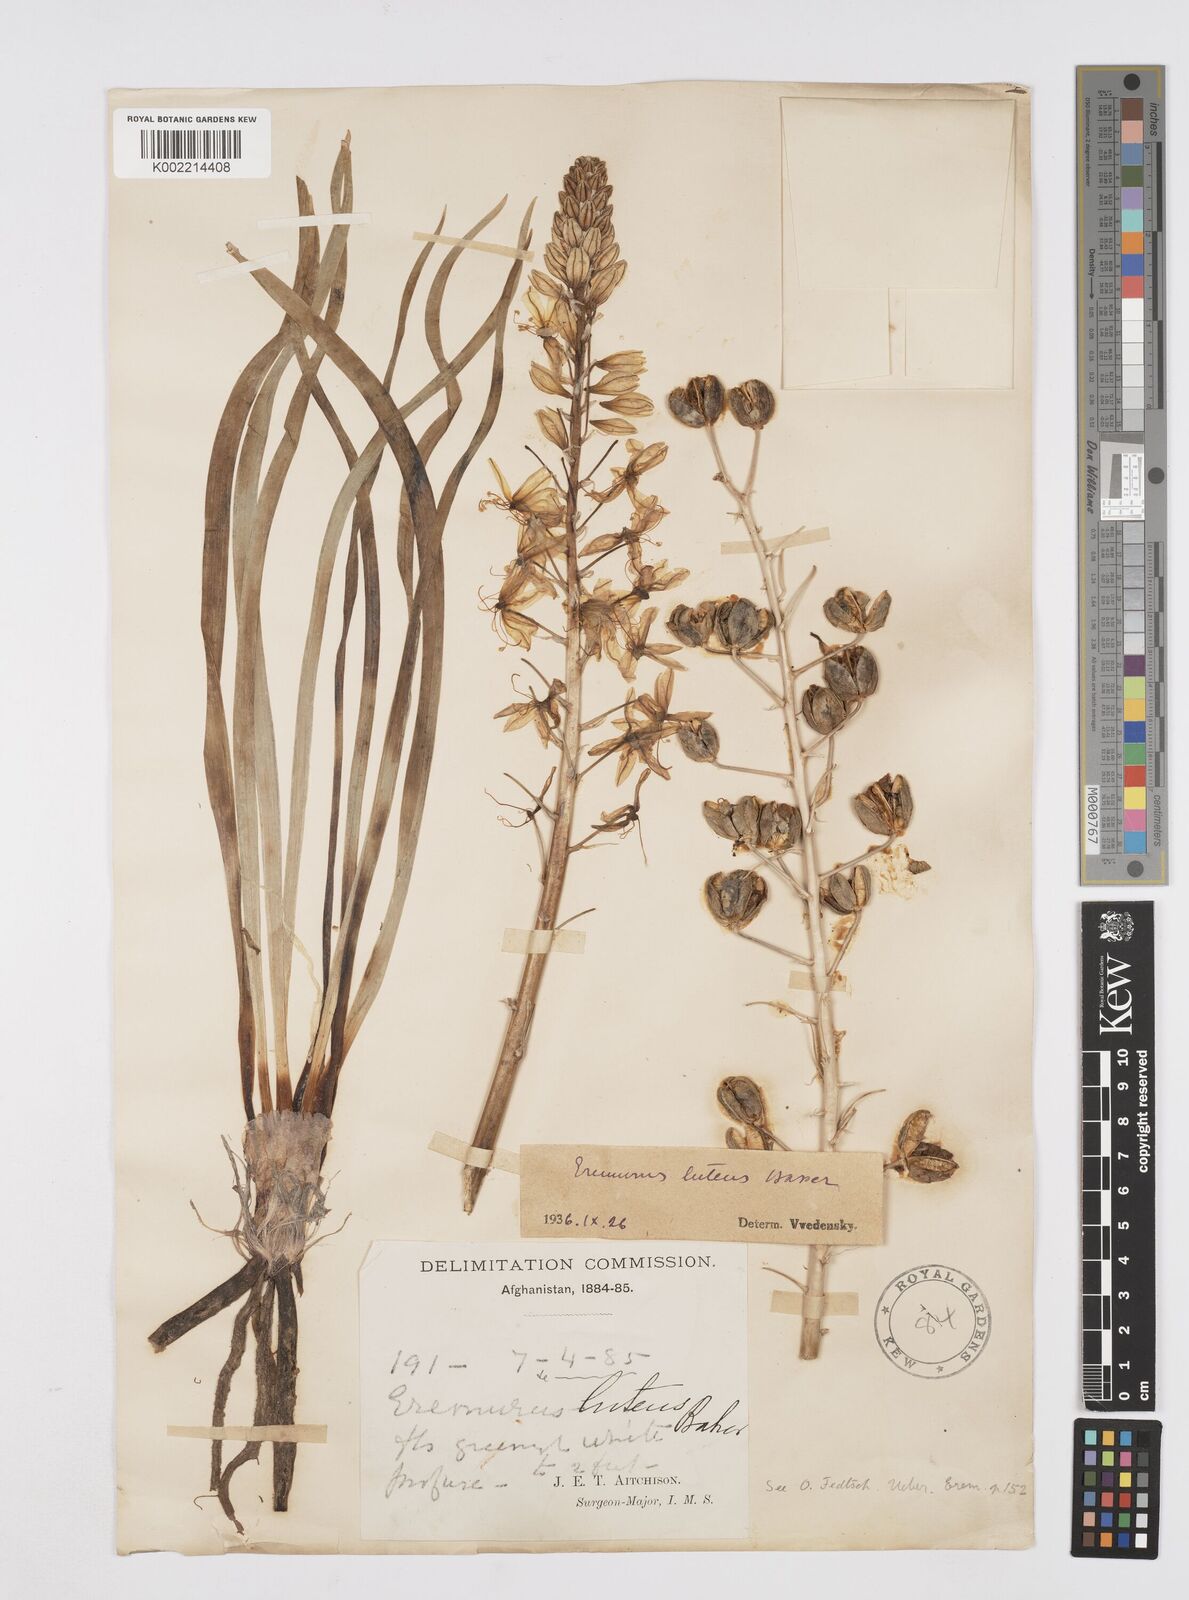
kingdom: Plantae
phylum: Tracheophyta
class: Liliopsida
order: Asparagales
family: Asphodelaceae
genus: Eremurus
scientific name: Eremurus luteus
